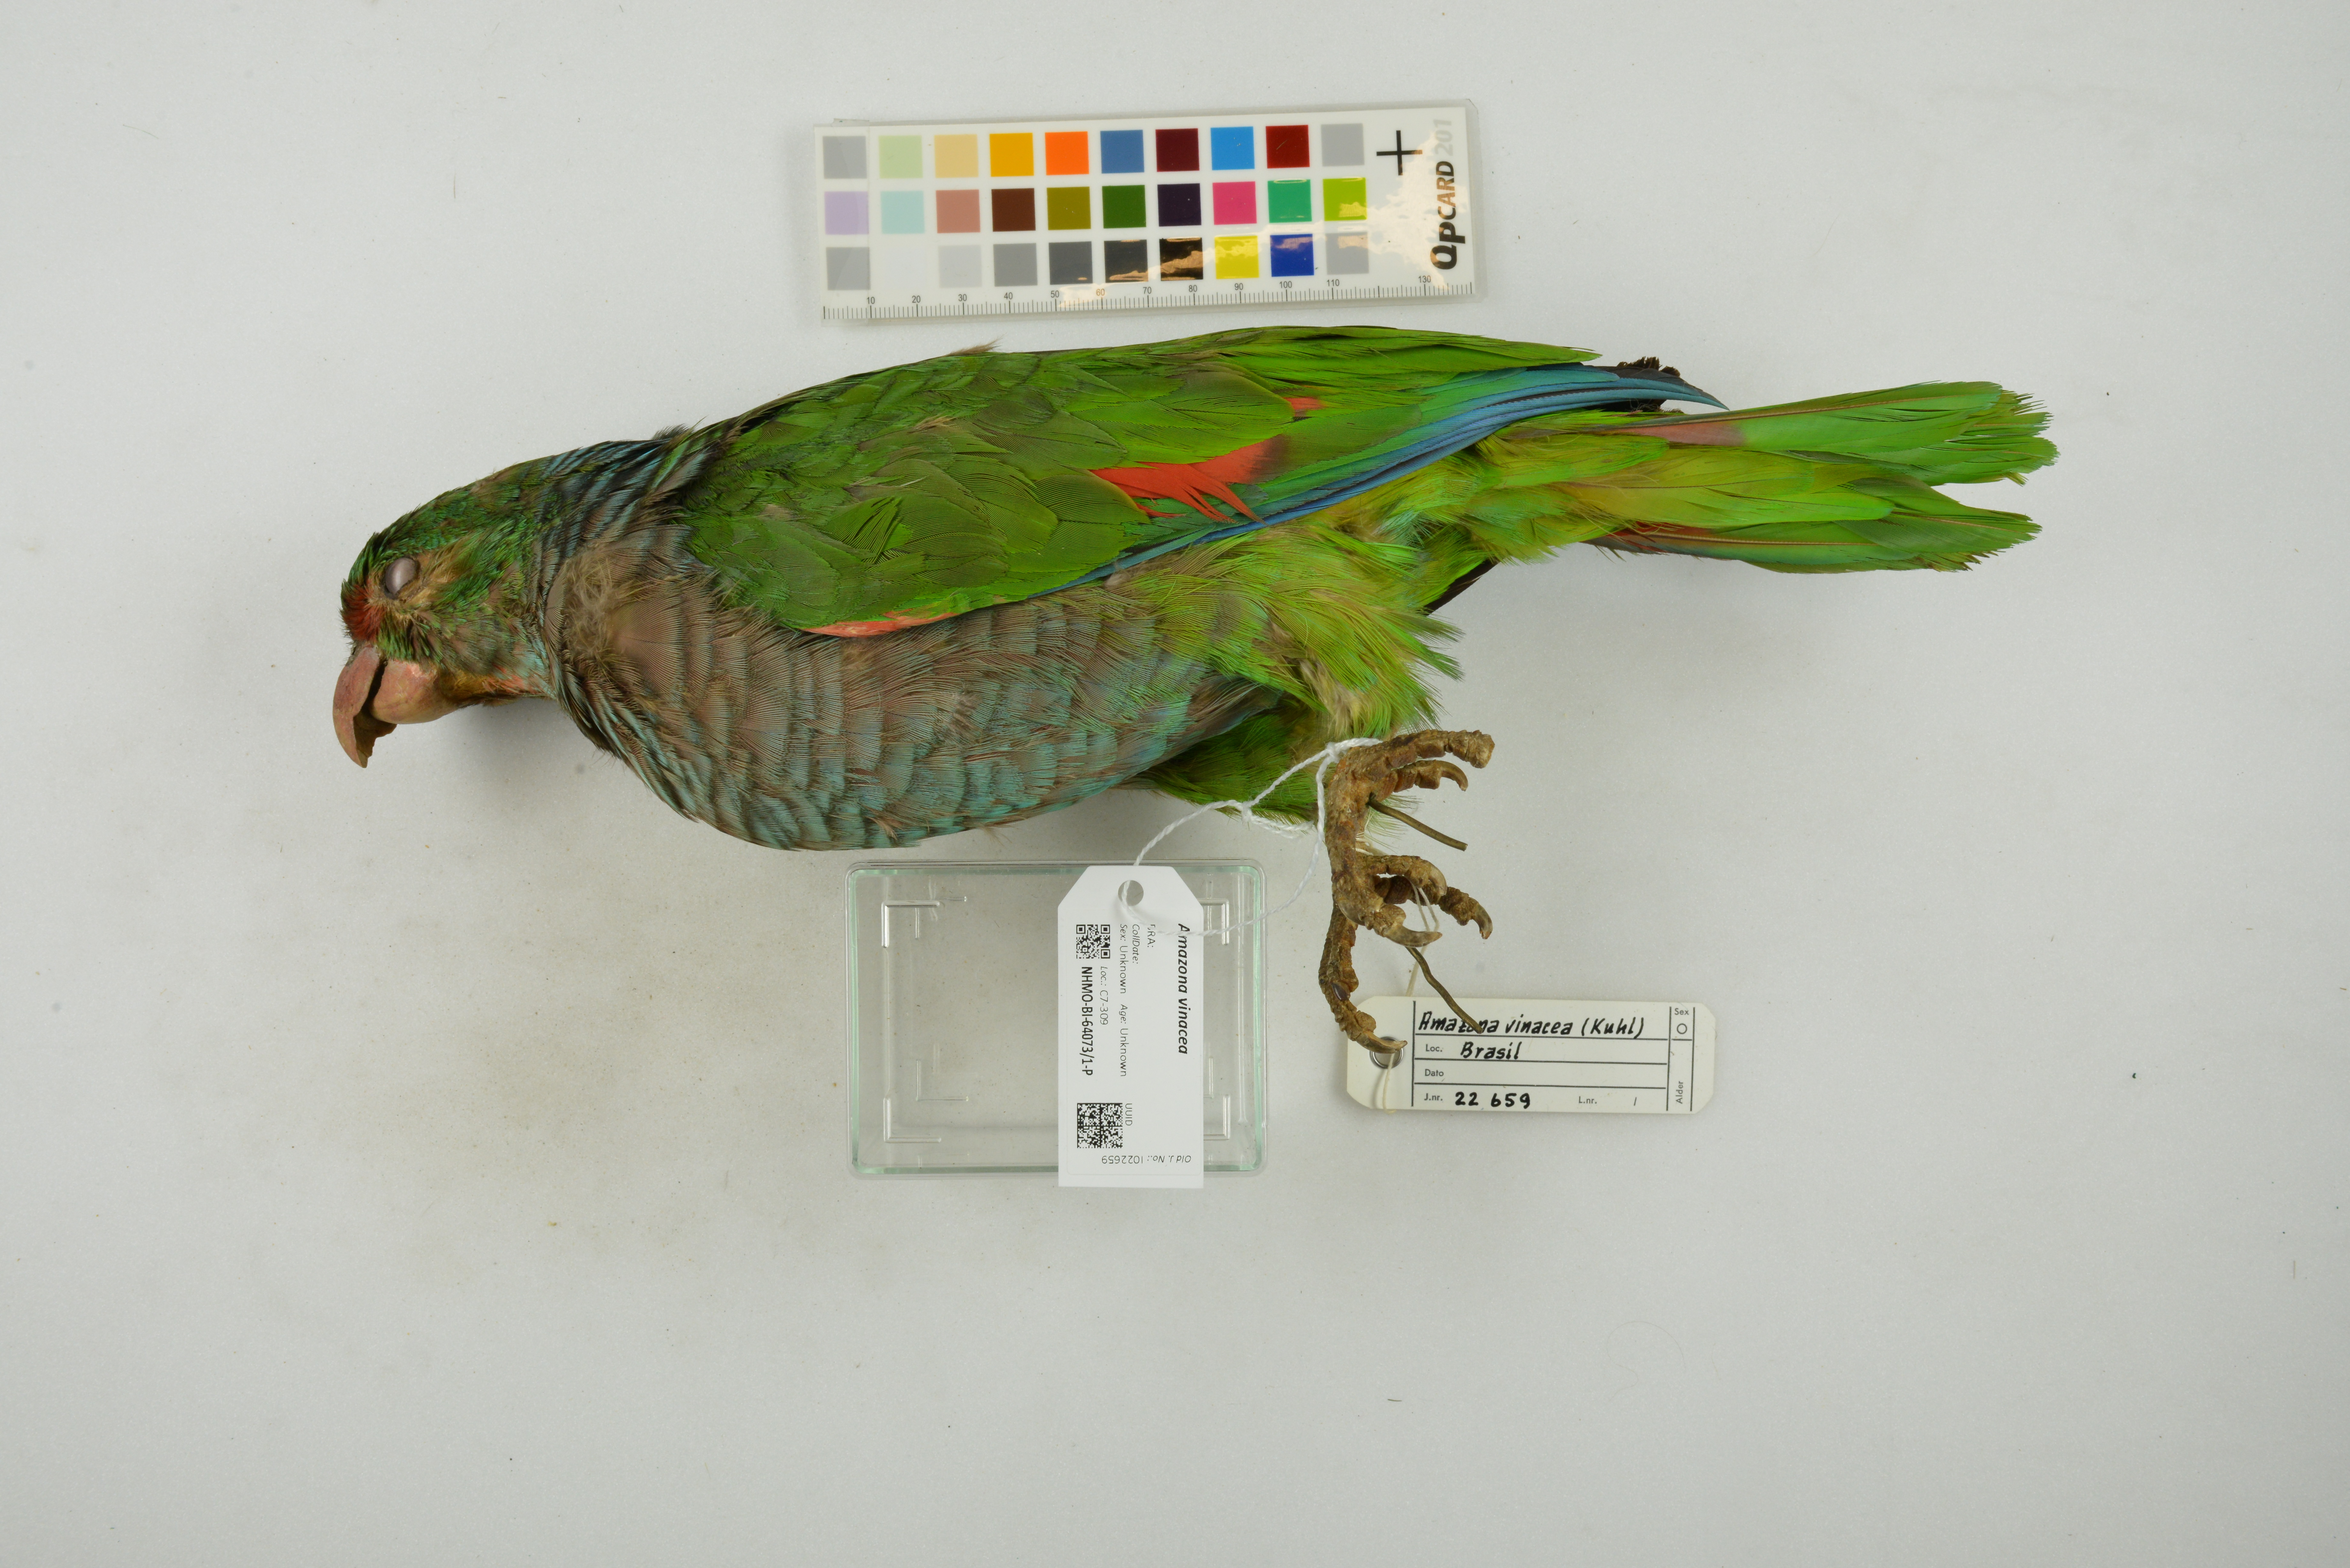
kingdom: Animalia
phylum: Chordata
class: Aves
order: Psittaciformes
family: Psittacidae
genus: Amazona
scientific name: Amazona vinacea
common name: Vinaceous-breasted amazon
